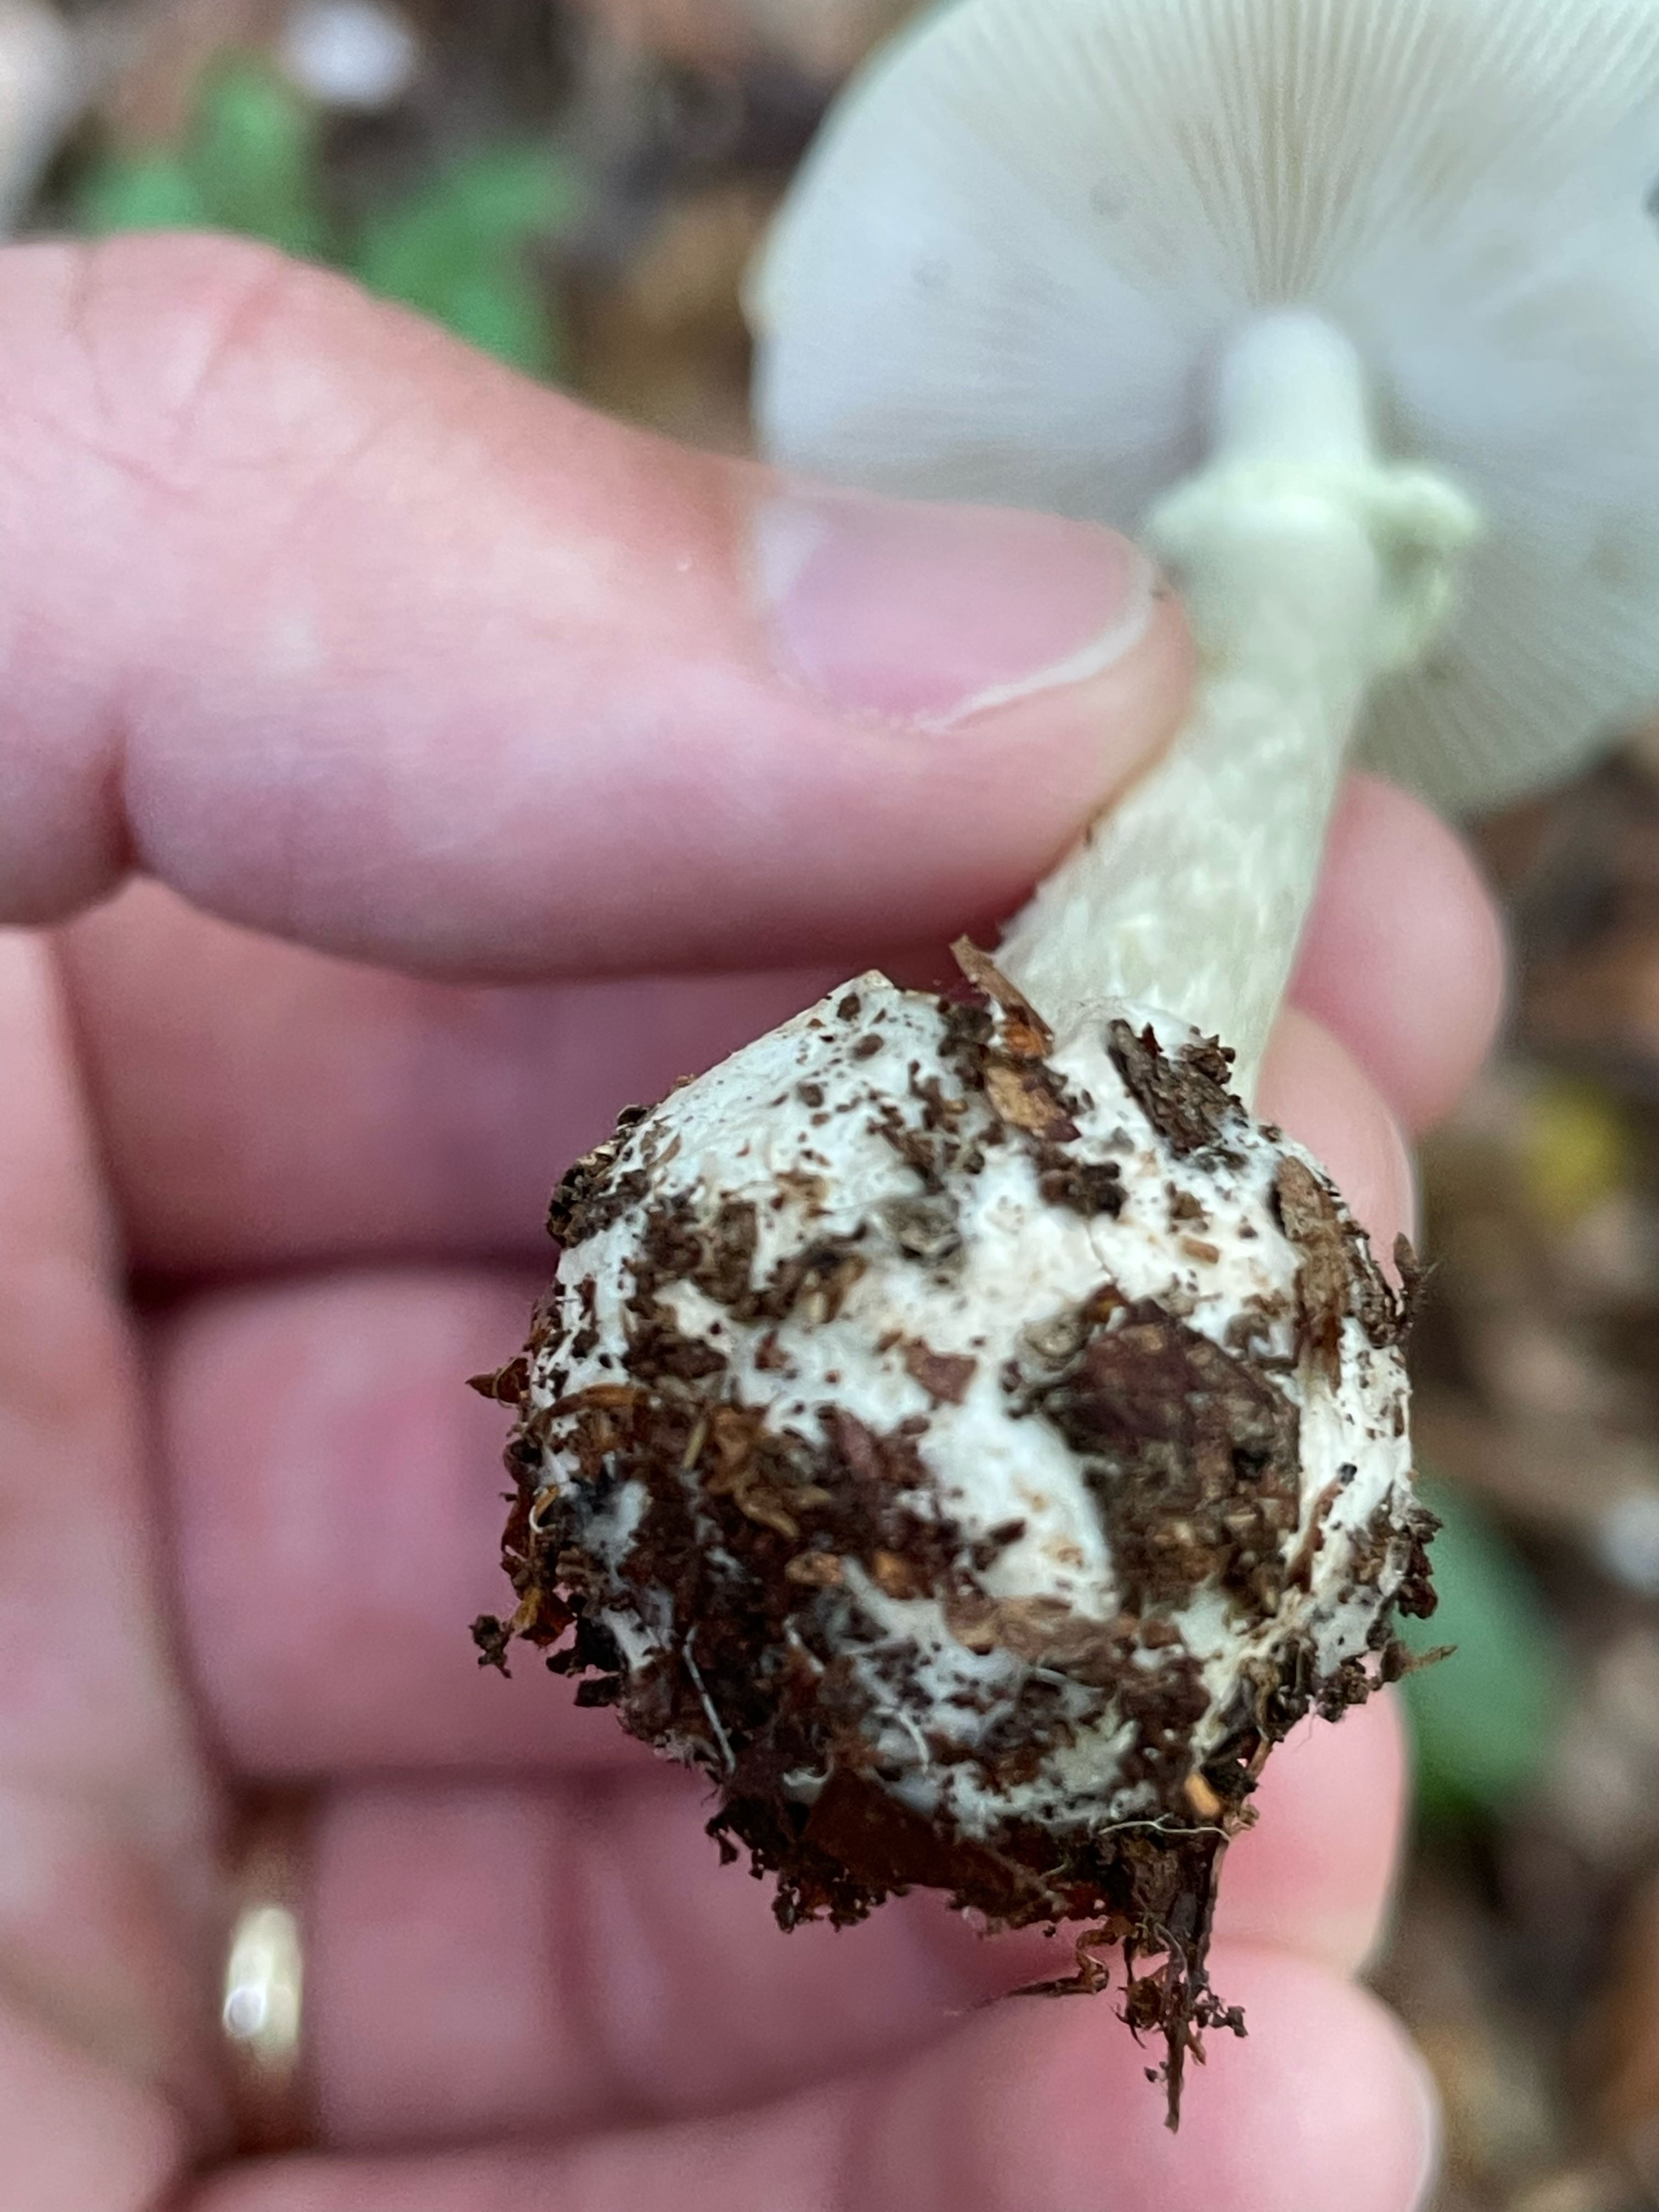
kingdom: Fungi
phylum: Basidiomycota
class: Agaricomycetes
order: Agaricales
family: Amanitaceae
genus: Amanita
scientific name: Amanita citrina
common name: False death-cap
